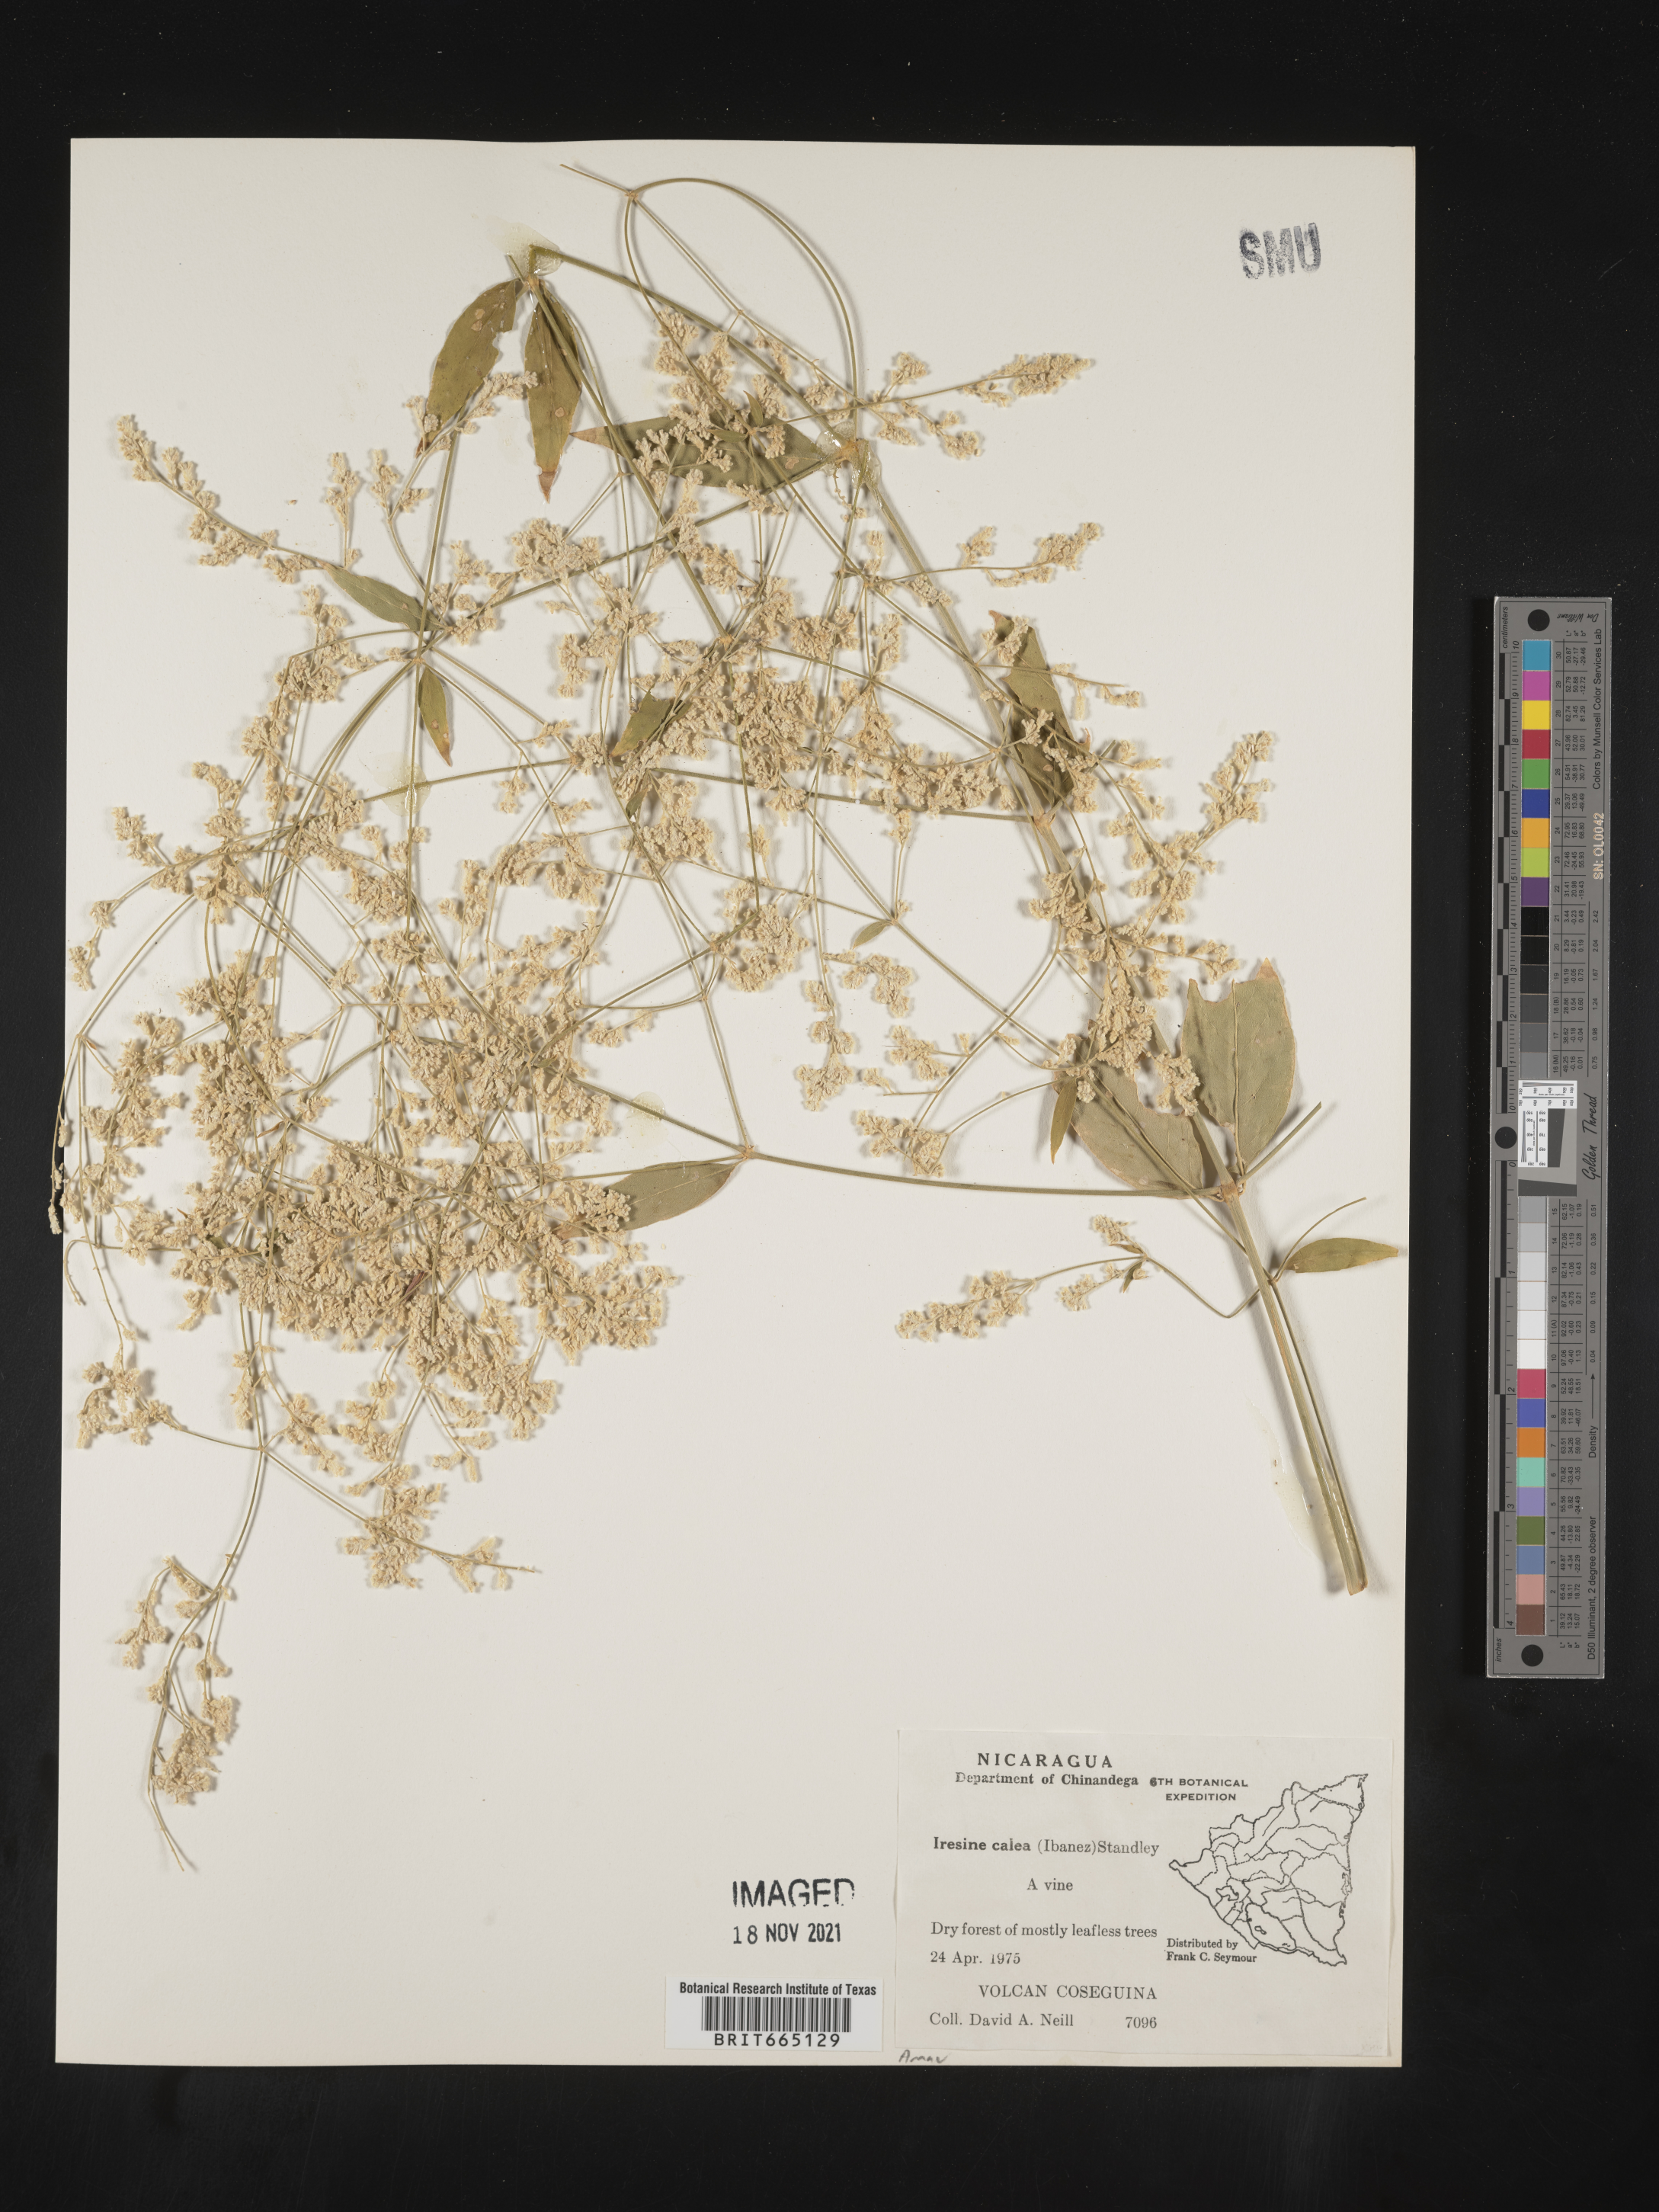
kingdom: Plantae
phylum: Tracheophyta
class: Magnoliopsida
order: Caryophyllales
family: Amaranthaceae
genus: Iresine
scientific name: Iresine
